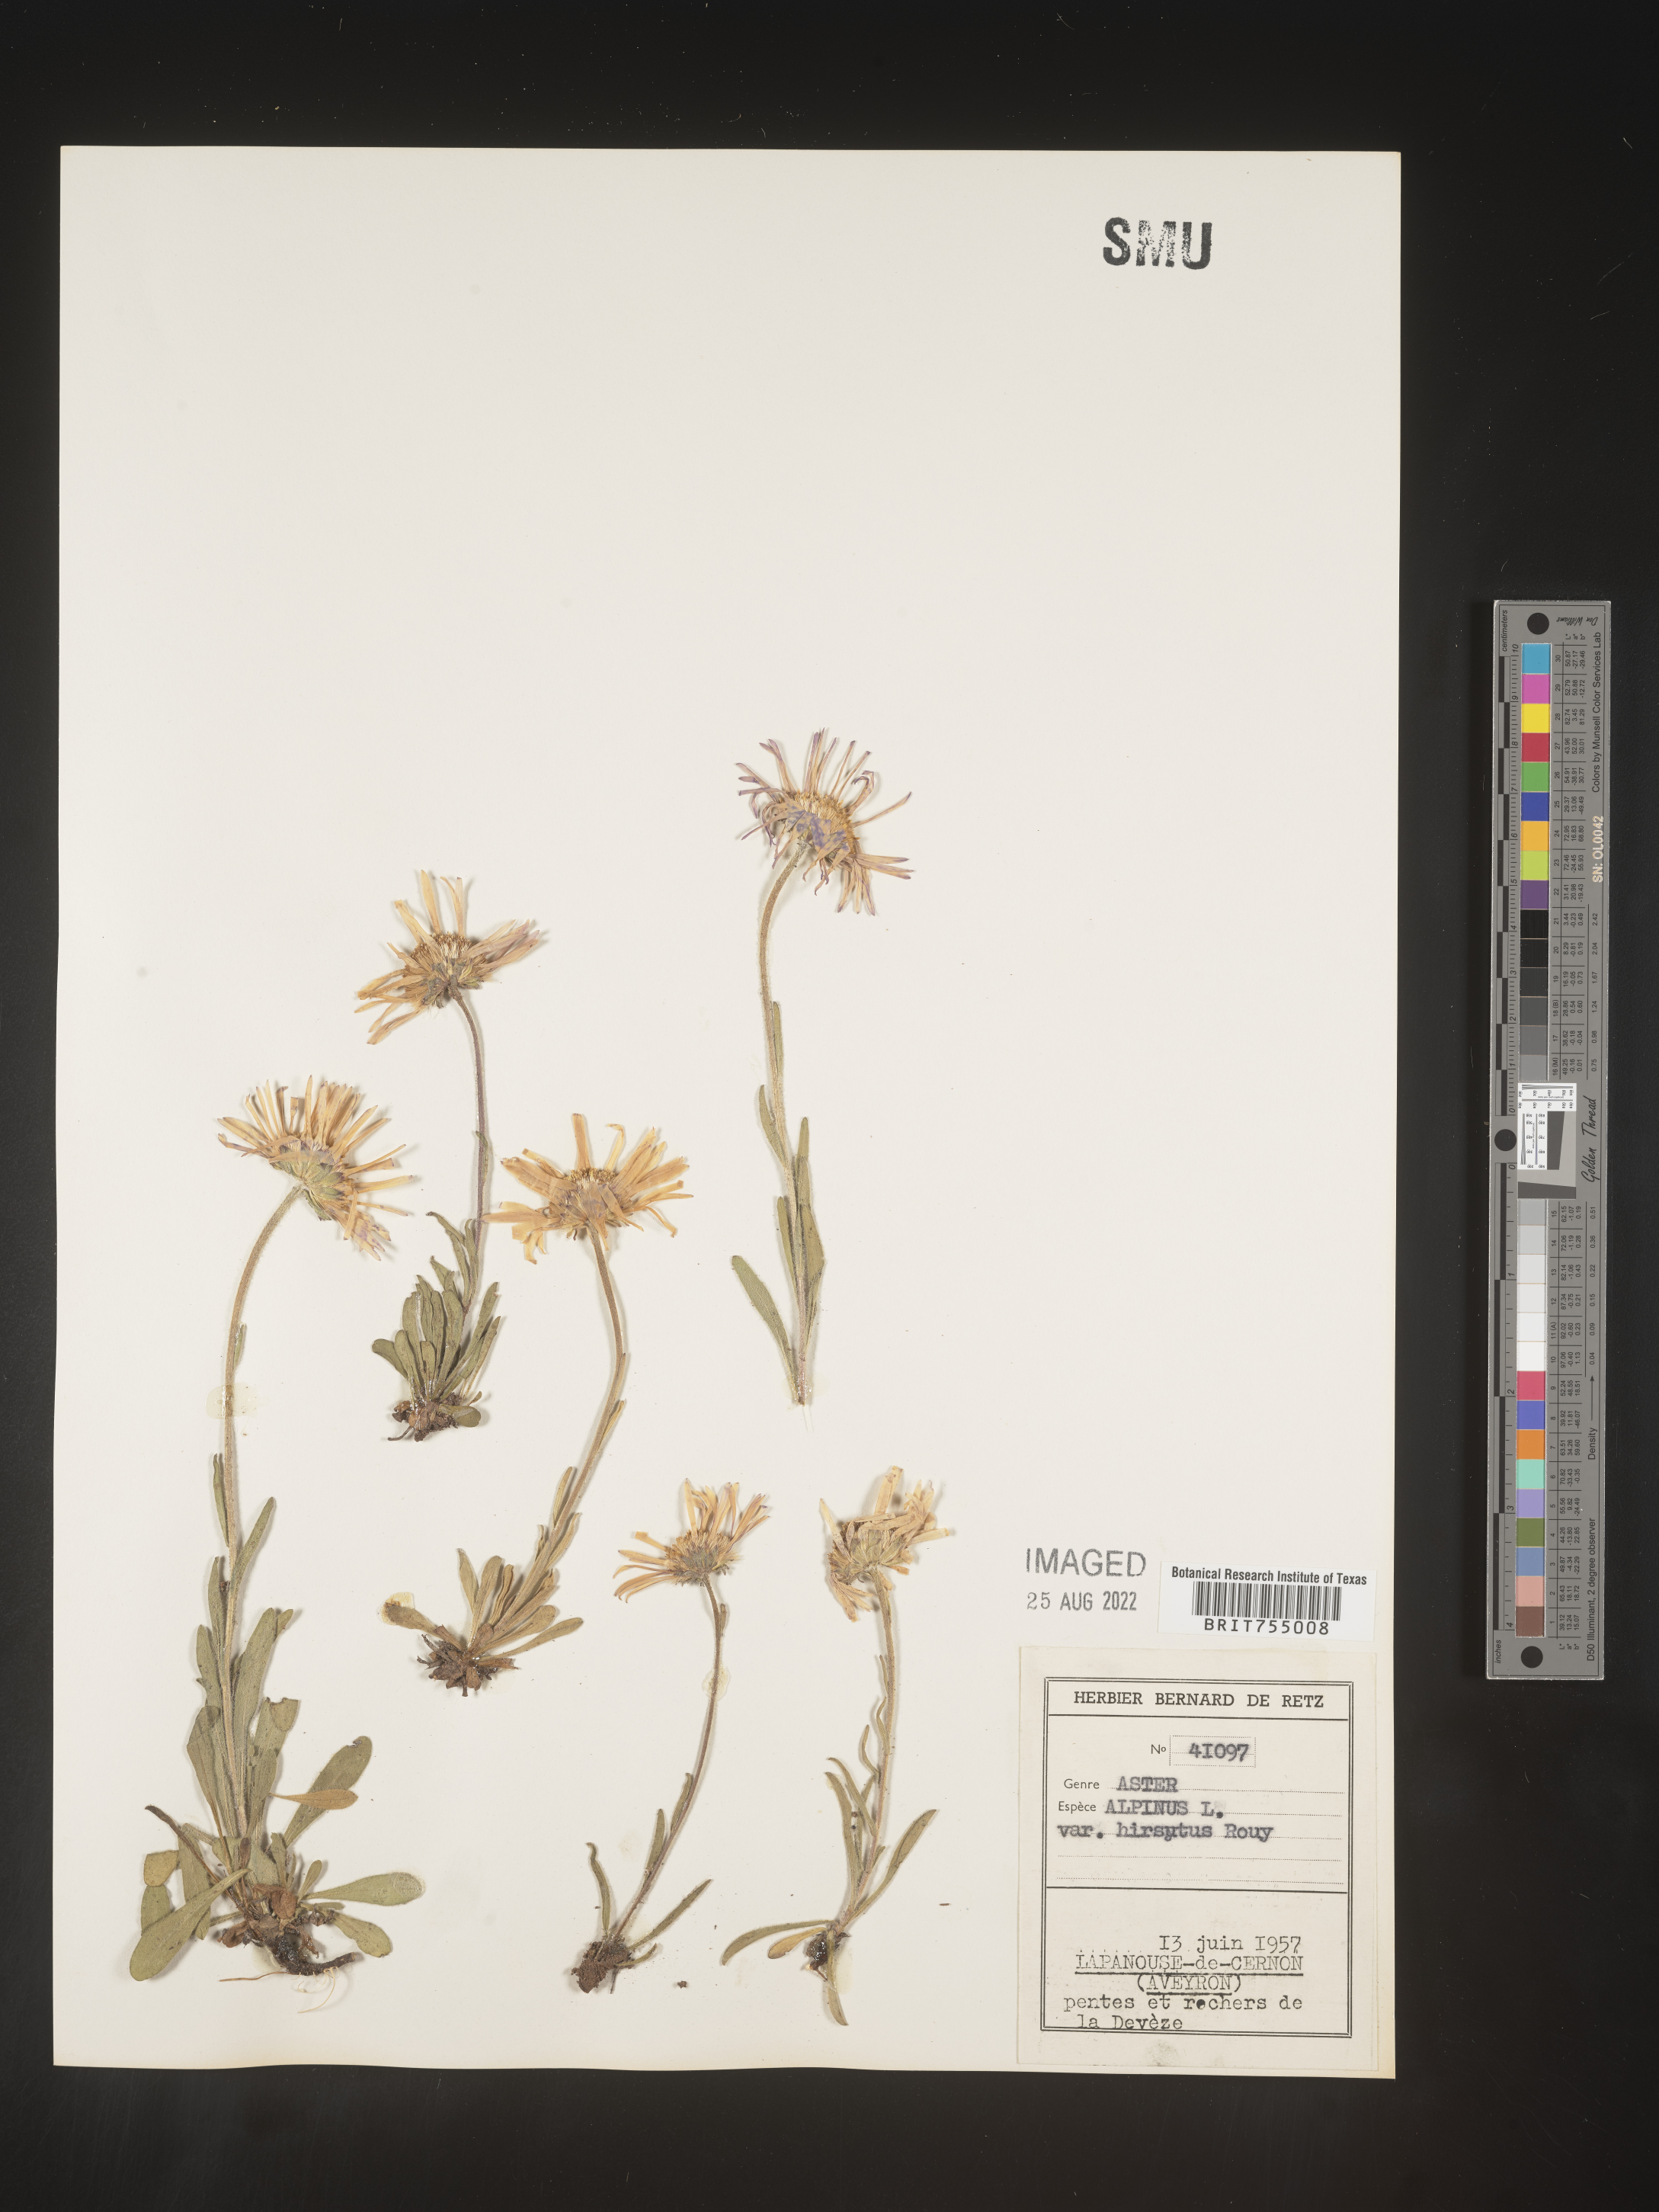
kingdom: Plantae
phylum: Tracheophyta
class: Magnoliopsida
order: Asterales
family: Asteraceae
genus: Symphyotrichum
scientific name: Symphyotrichum
